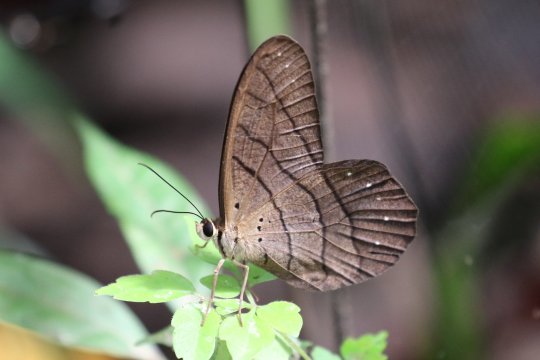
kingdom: Animalia
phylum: Arthropoda
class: Insecta
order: Lepidoptera
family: Nymphalidae
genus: Pierella
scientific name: Pierella rhea
